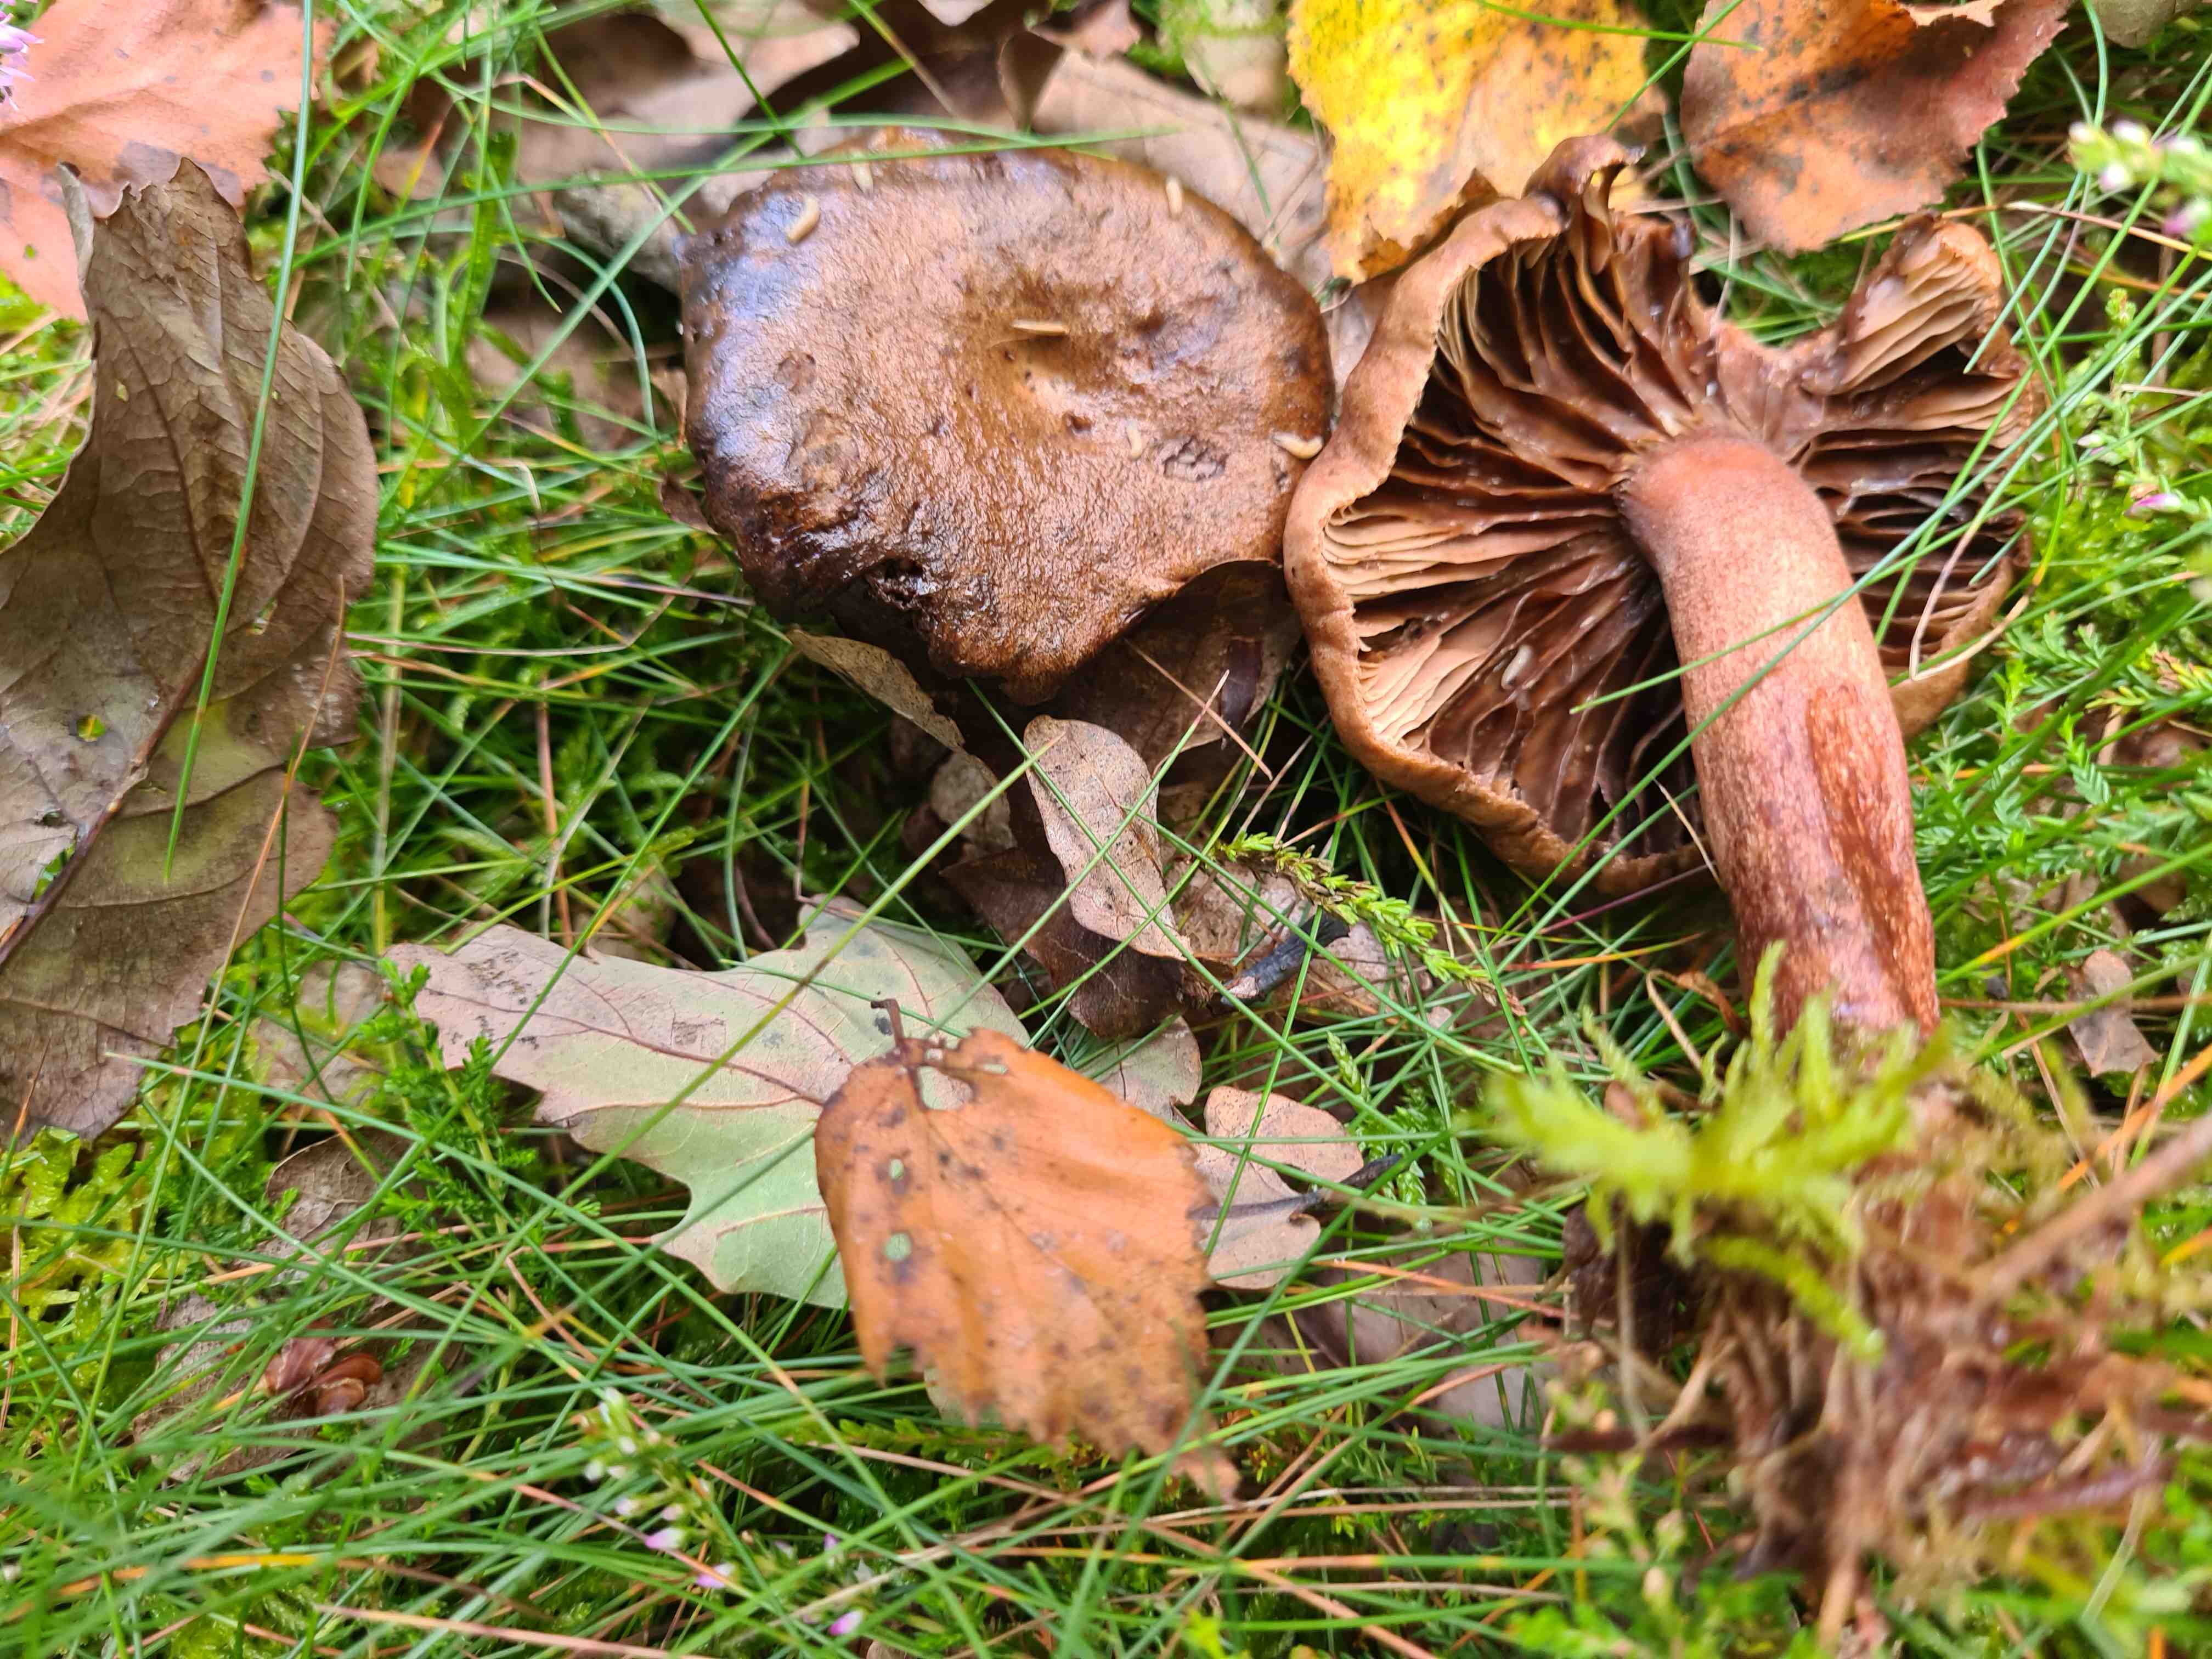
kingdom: Fungi
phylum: Basidiomycota
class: Agaricomycetes
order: Agaricales
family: Tricholomataceae
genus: Tricholoma
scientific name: Tricholoma fulvum
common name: birke-ridderhat
